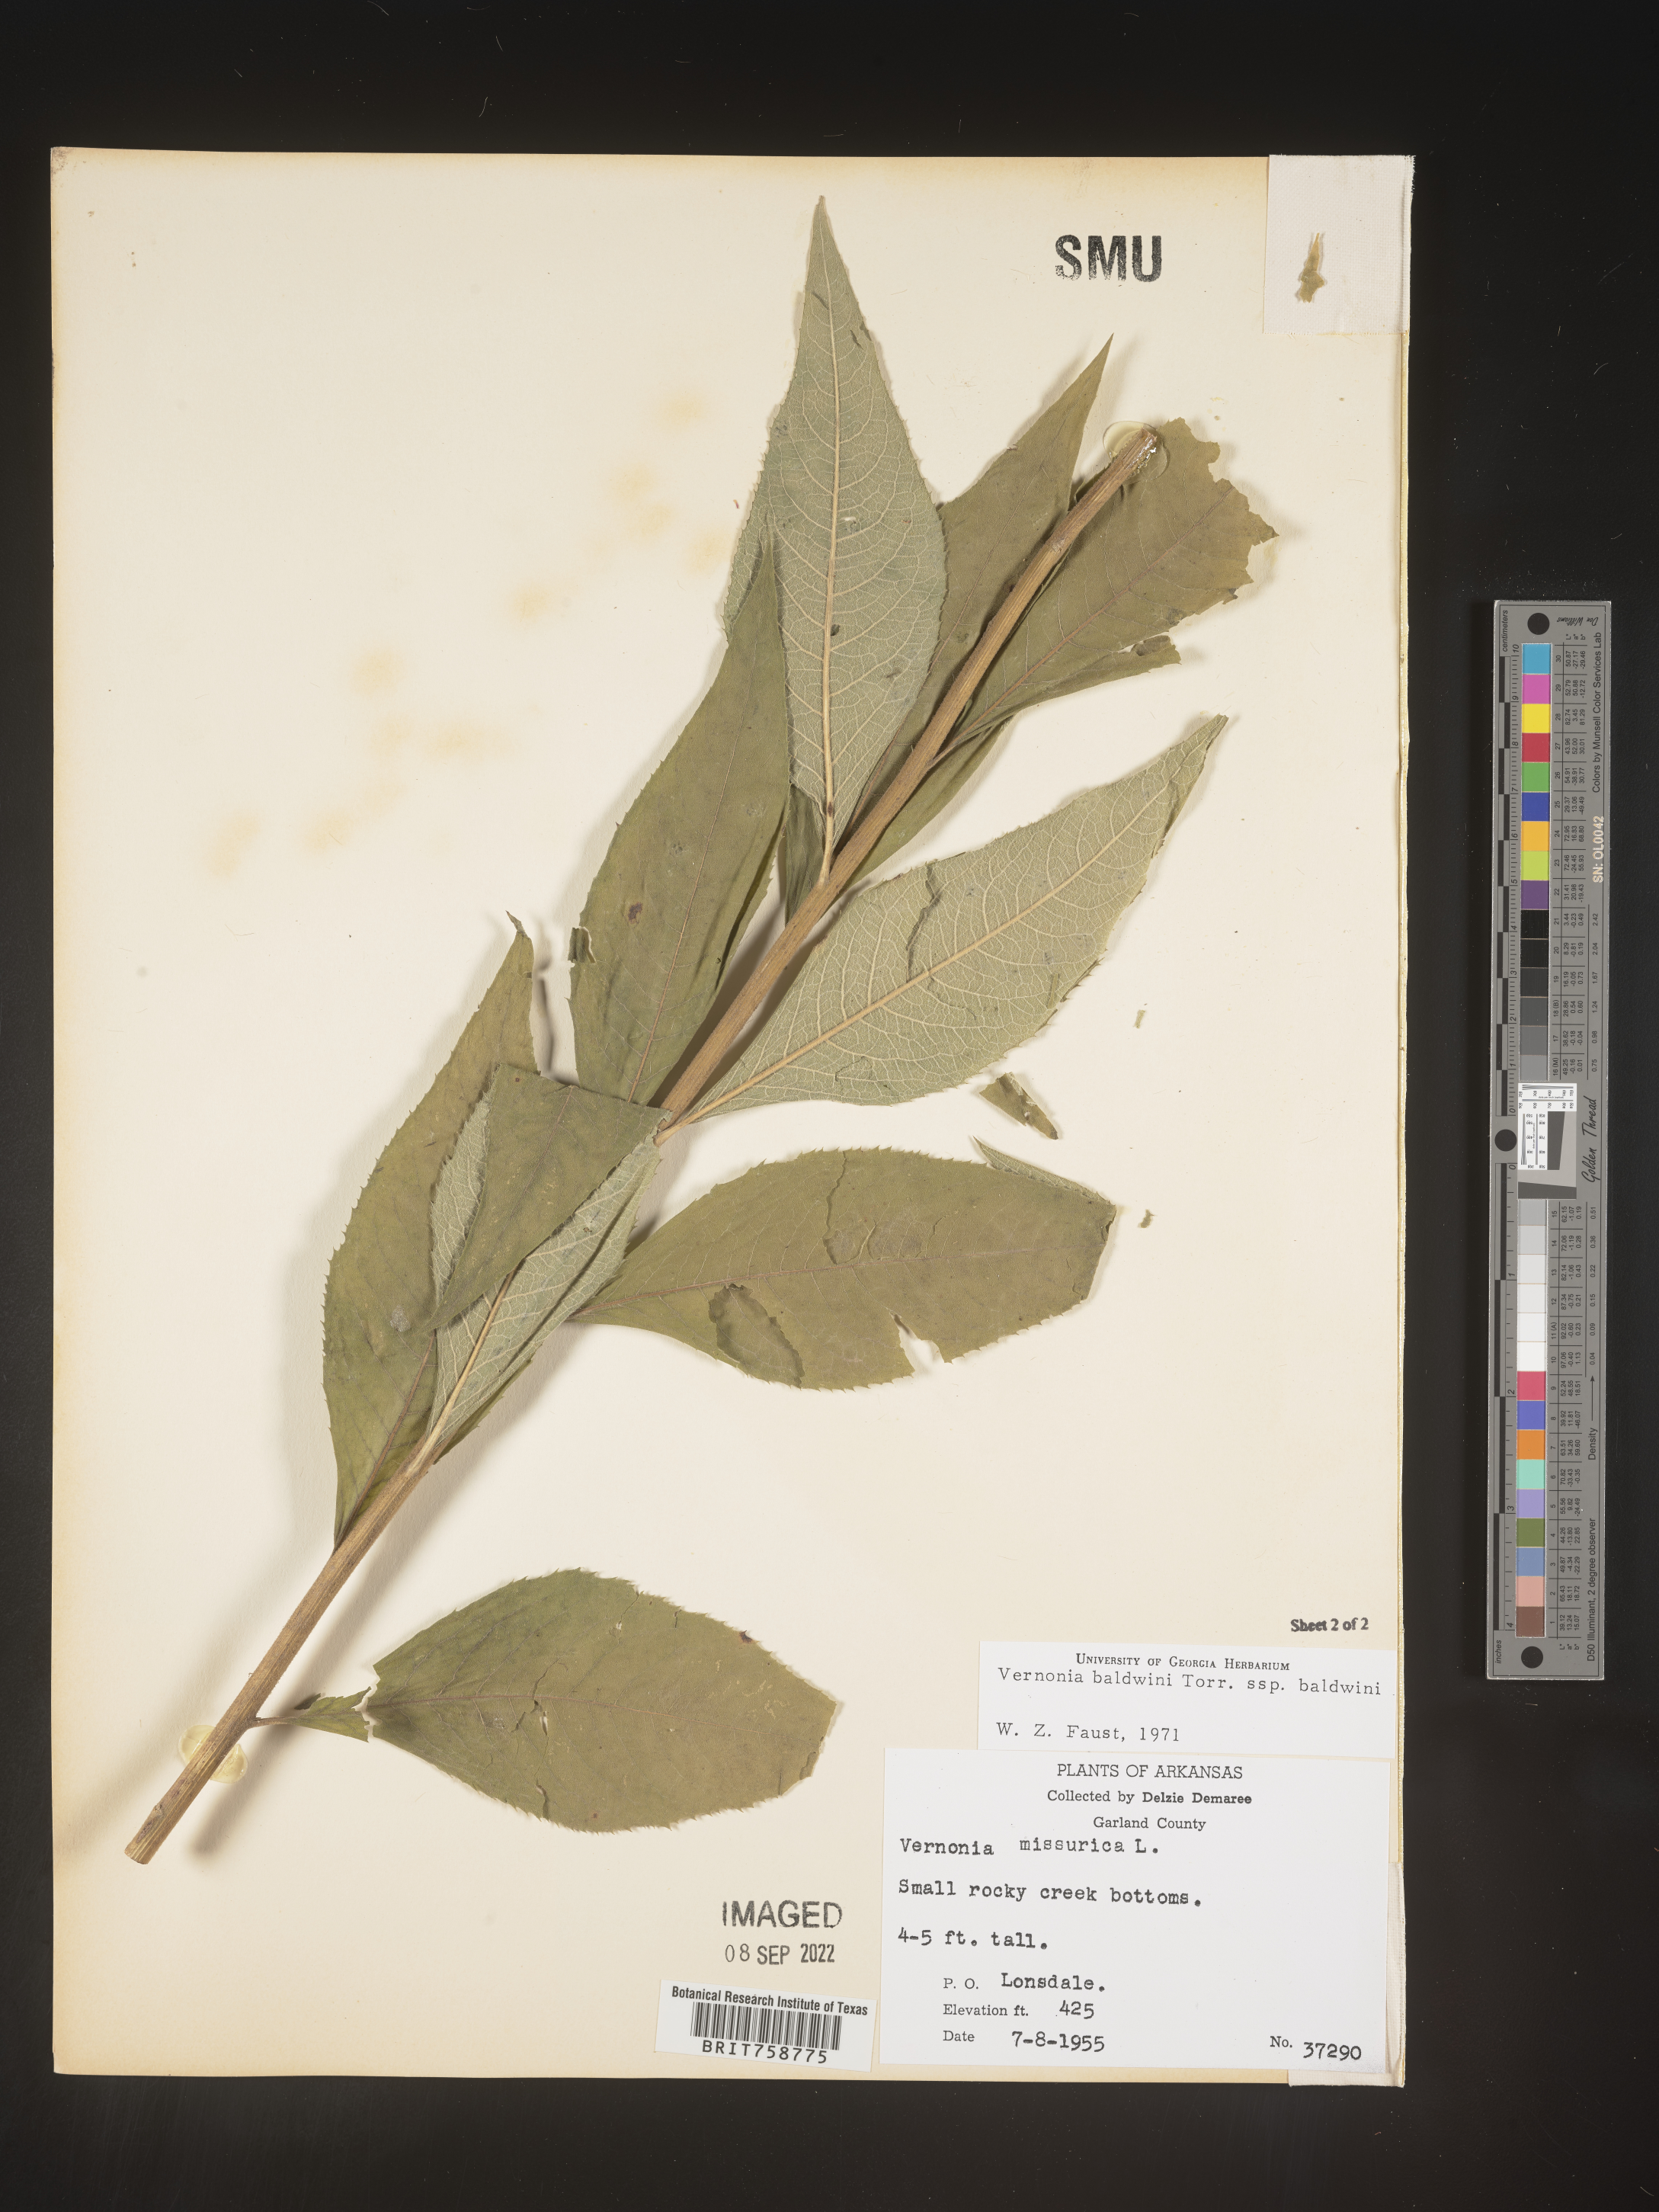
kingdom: Plantae
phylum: Tracheophyta
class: Magnoliopsida
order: Asterales
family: Asteraceae
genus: Vernonia
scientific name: Vernonia baldwinii
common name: Western ironweed
